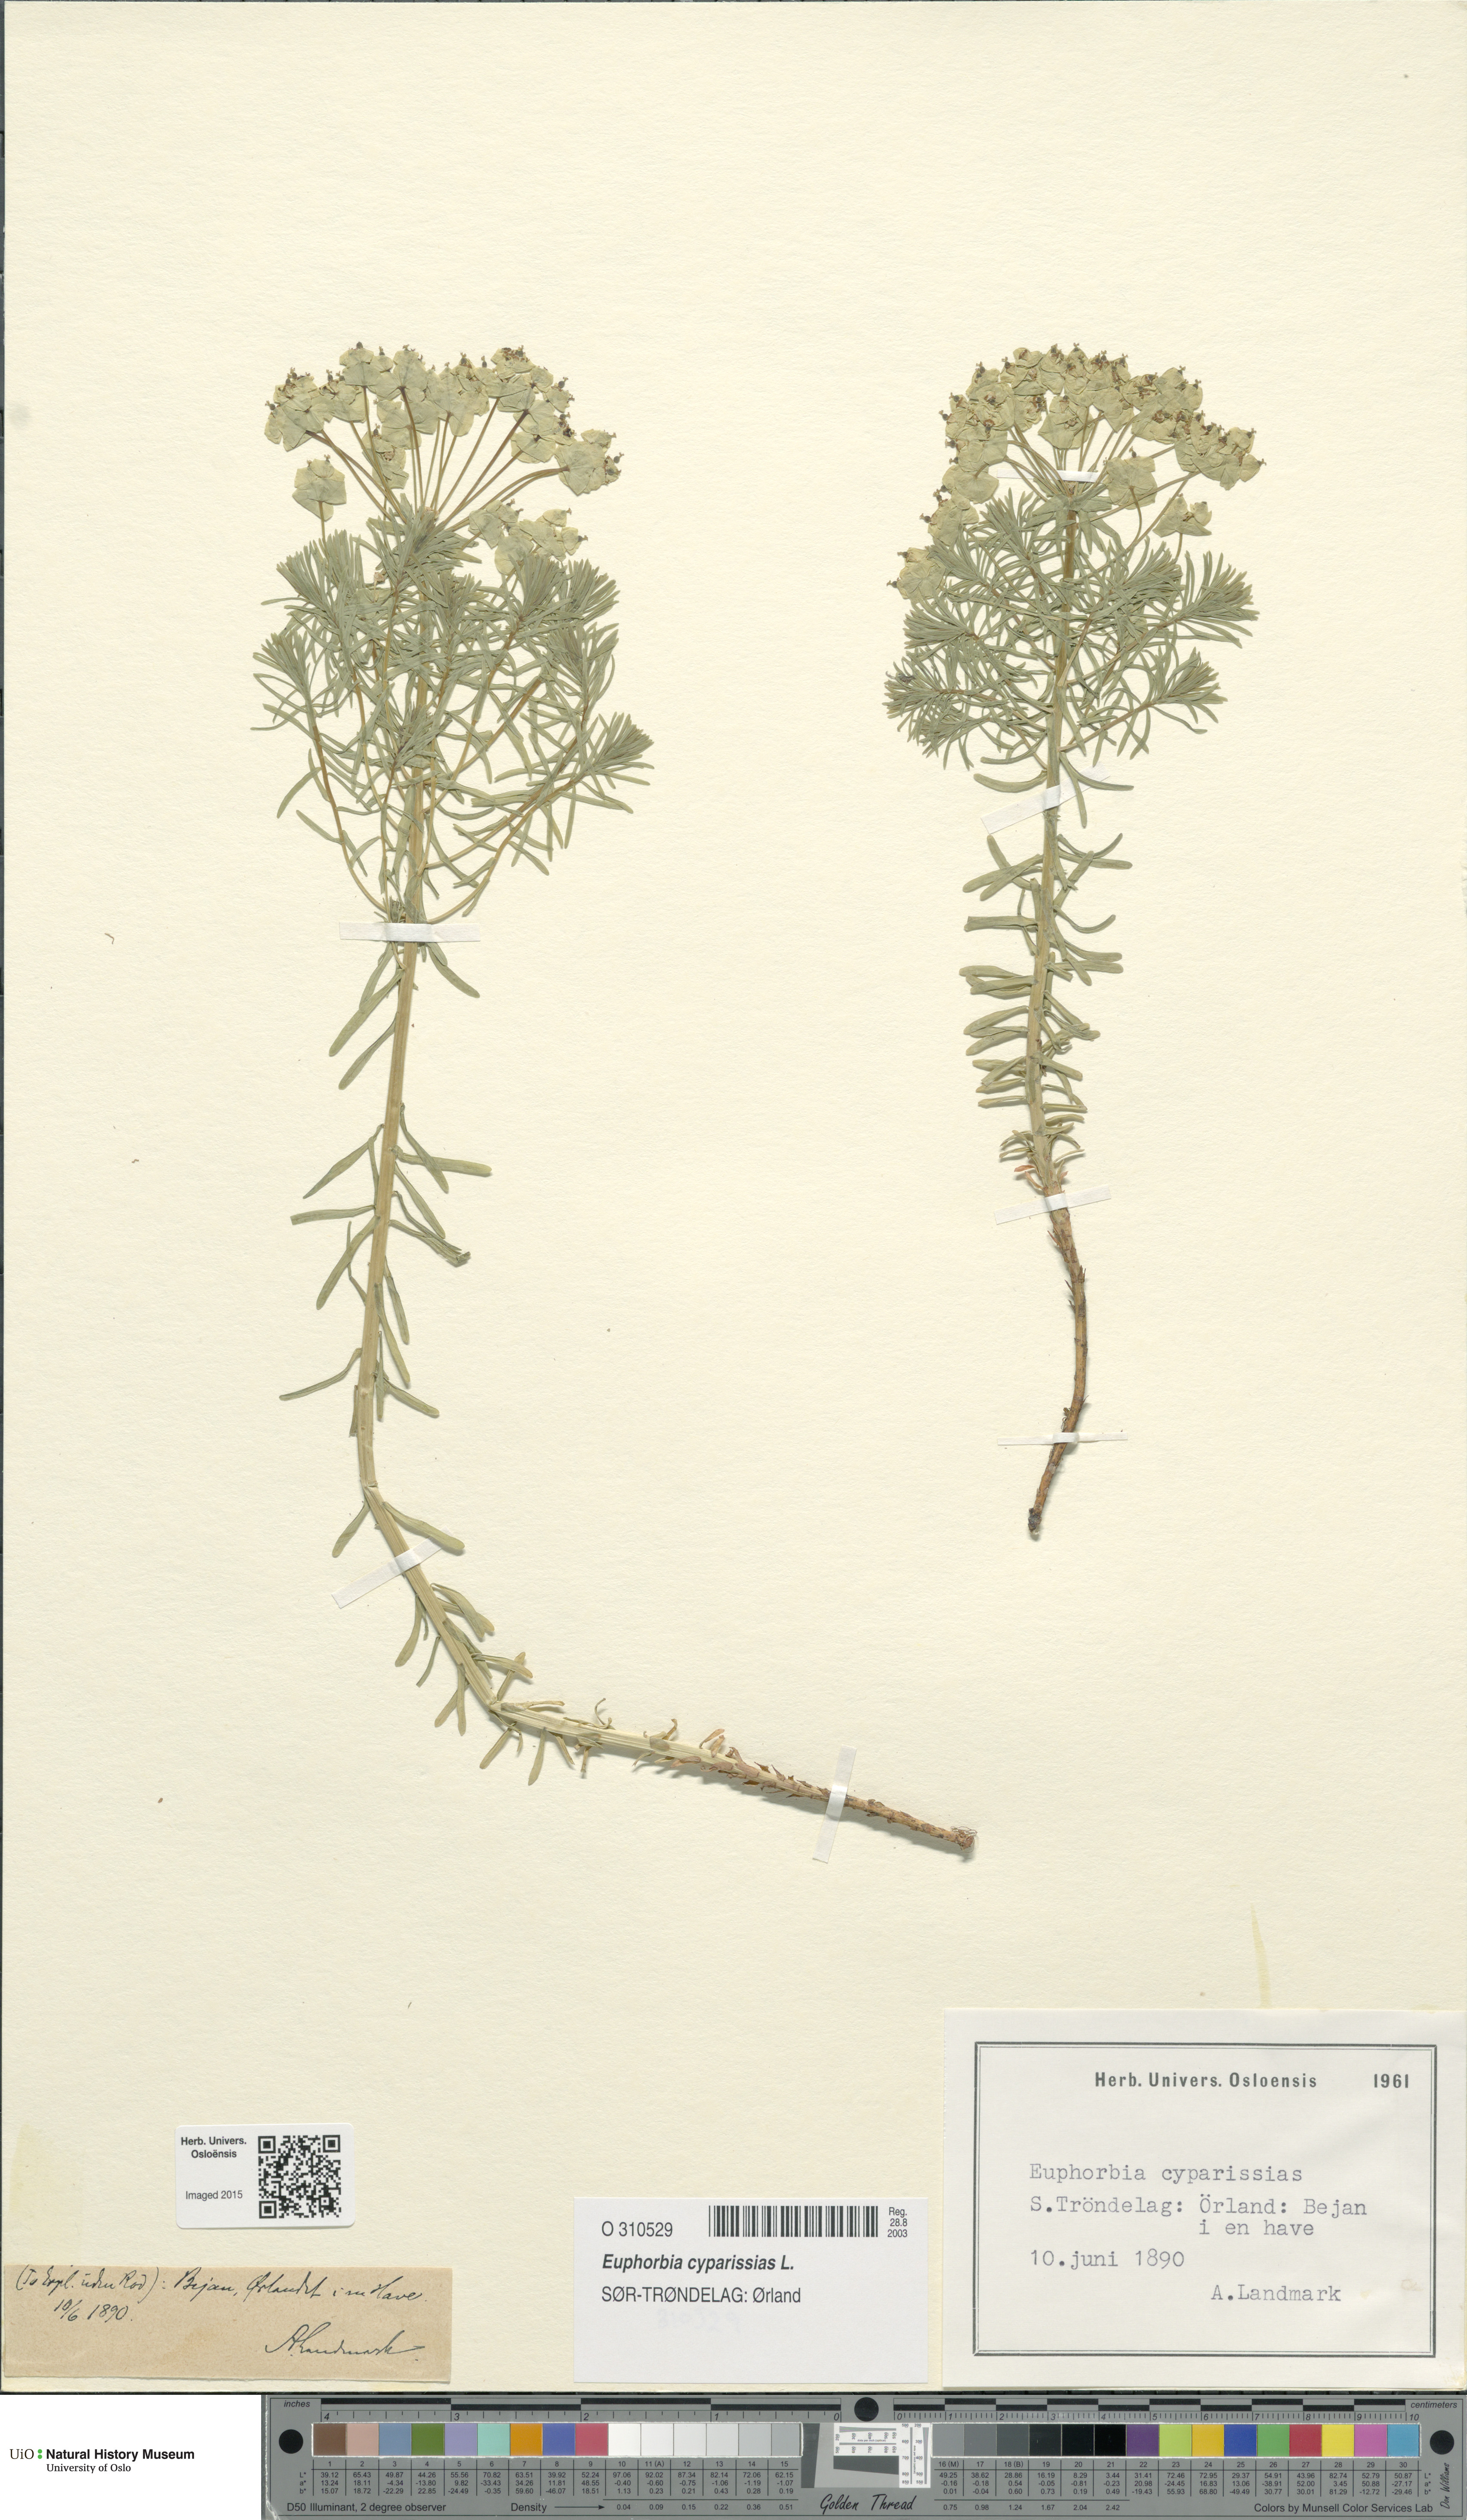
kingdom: Plantae
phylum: Tracheophyta
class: Magnoliopsida
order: Malpighiales
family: Euphorbiaceae
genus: Euphorbia
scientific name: Euphorbia cyparissias
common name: Cypress spurge
